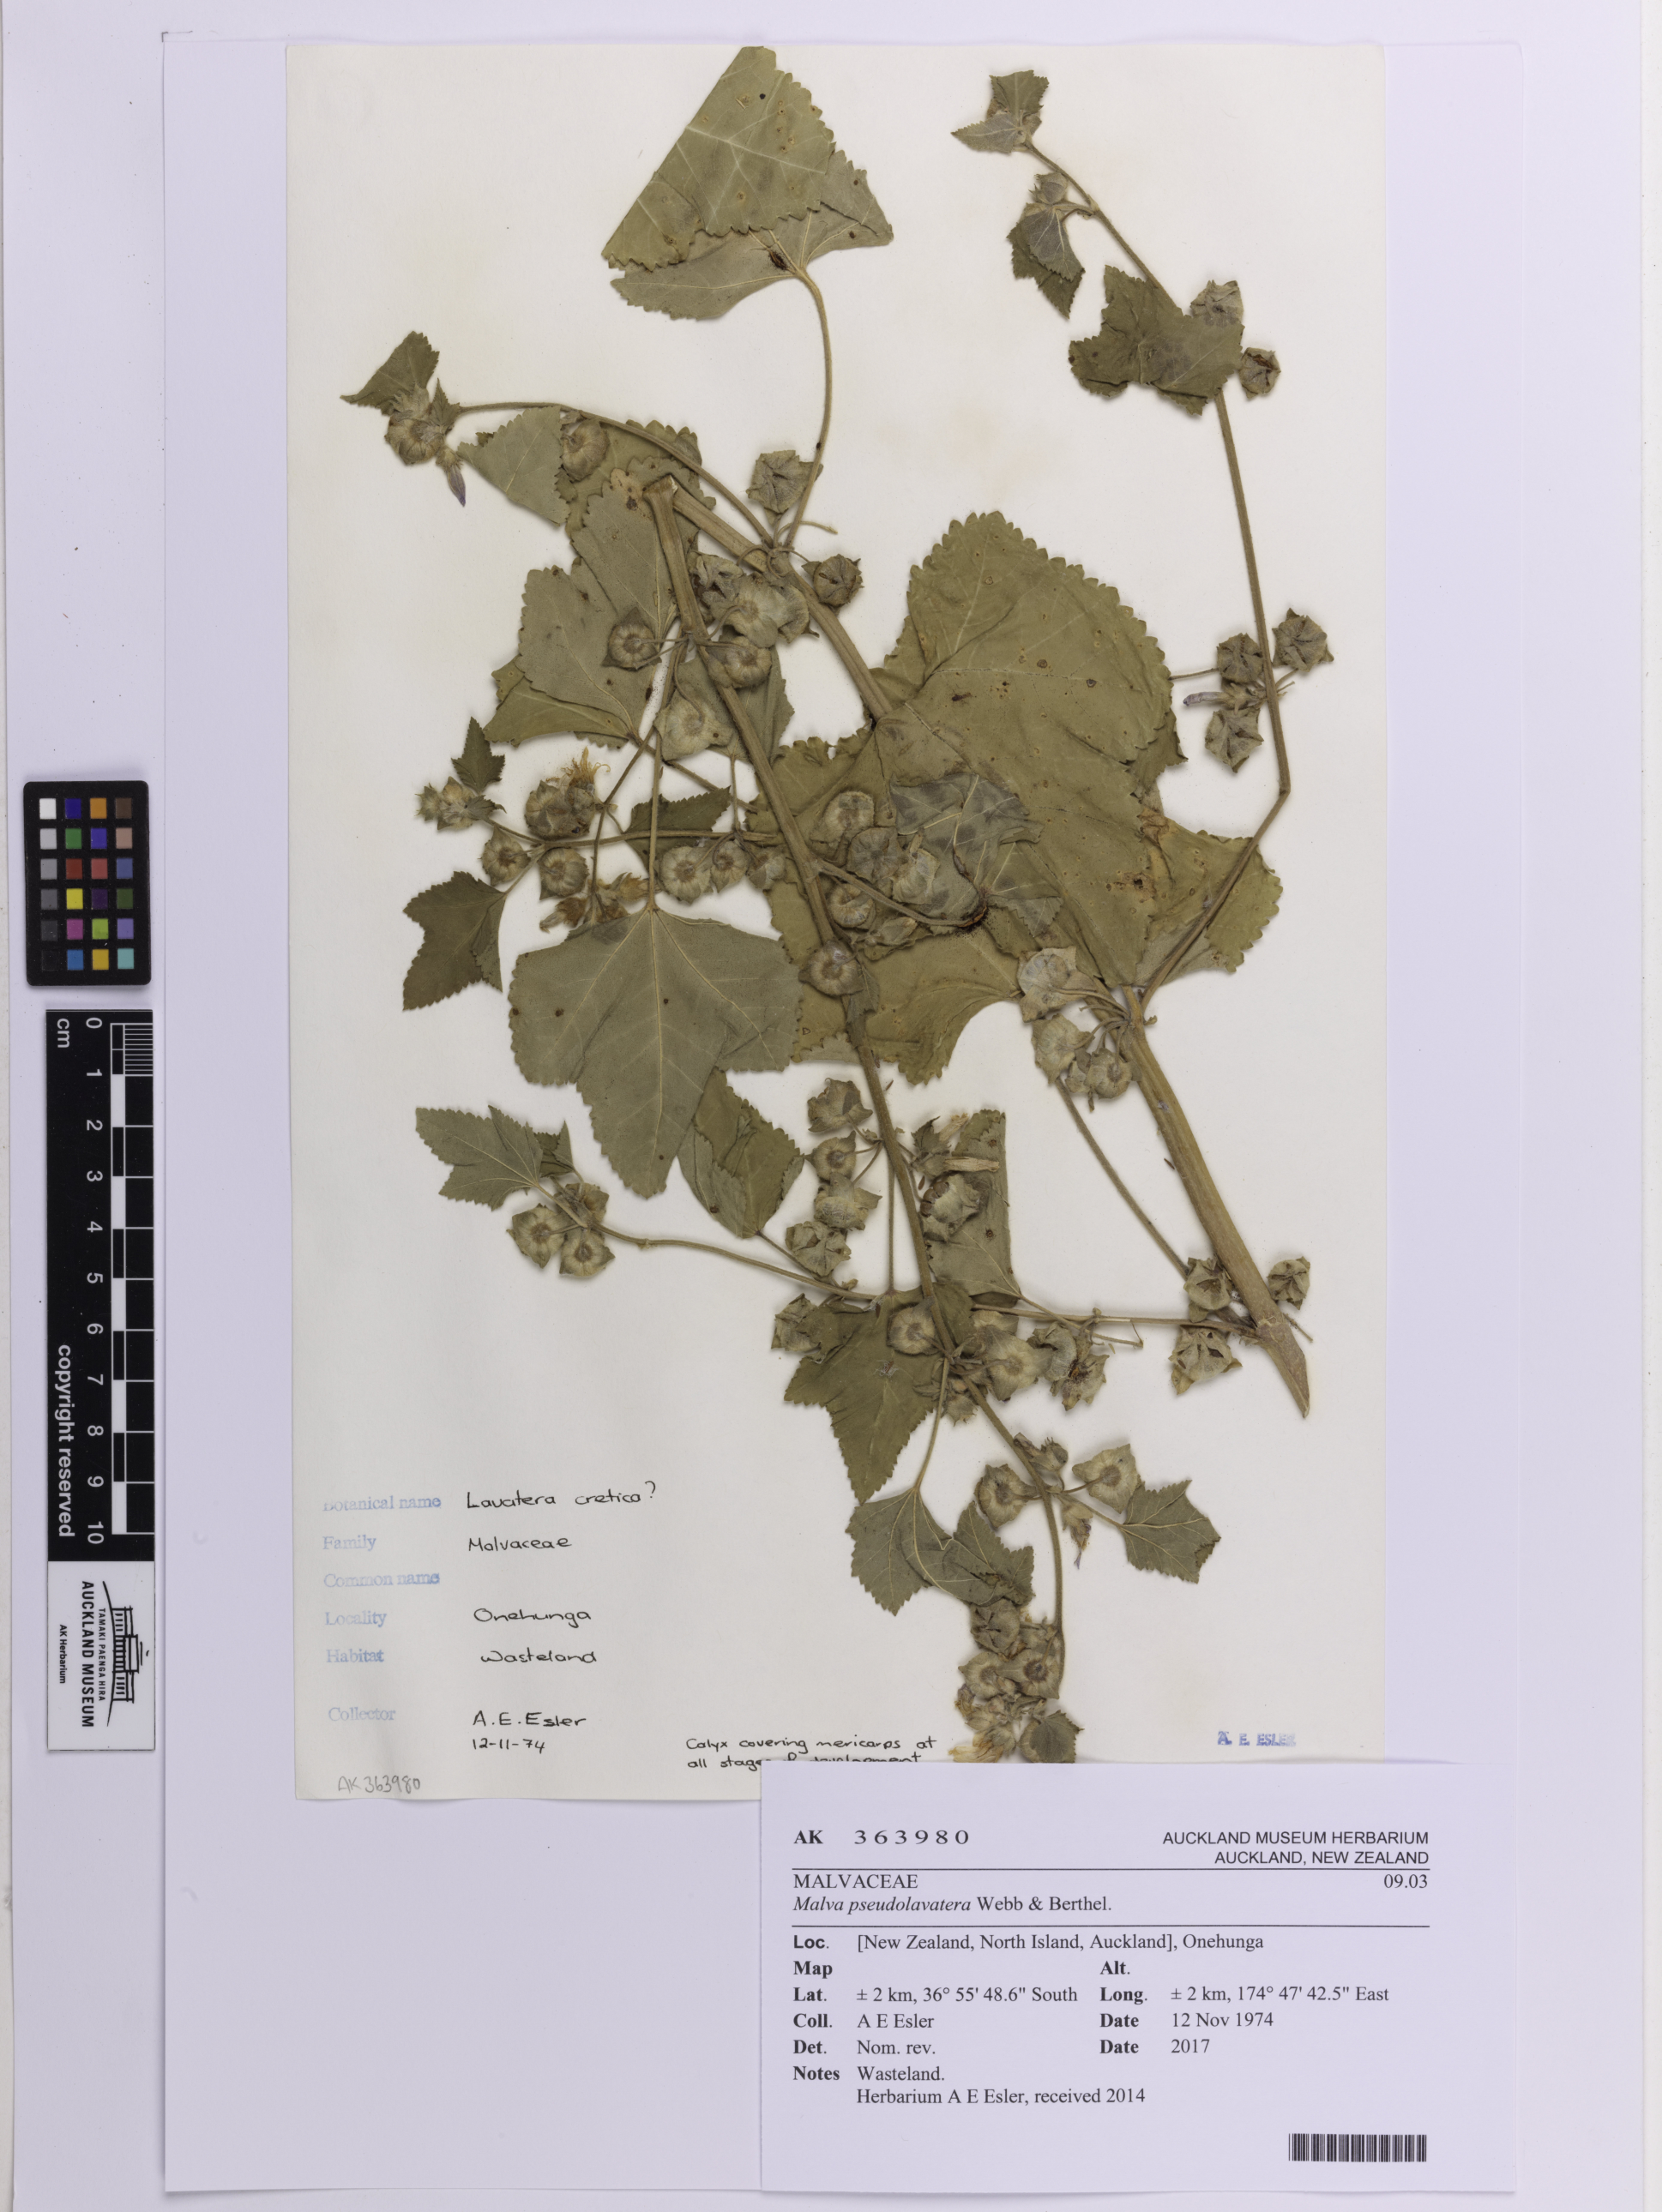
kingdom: Plantae
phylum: Tracheophyta
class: Magnoliopsida
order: Malvales
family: Malvaceae
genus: Malva
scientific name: Malva multiflora
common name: Cheeseweed
